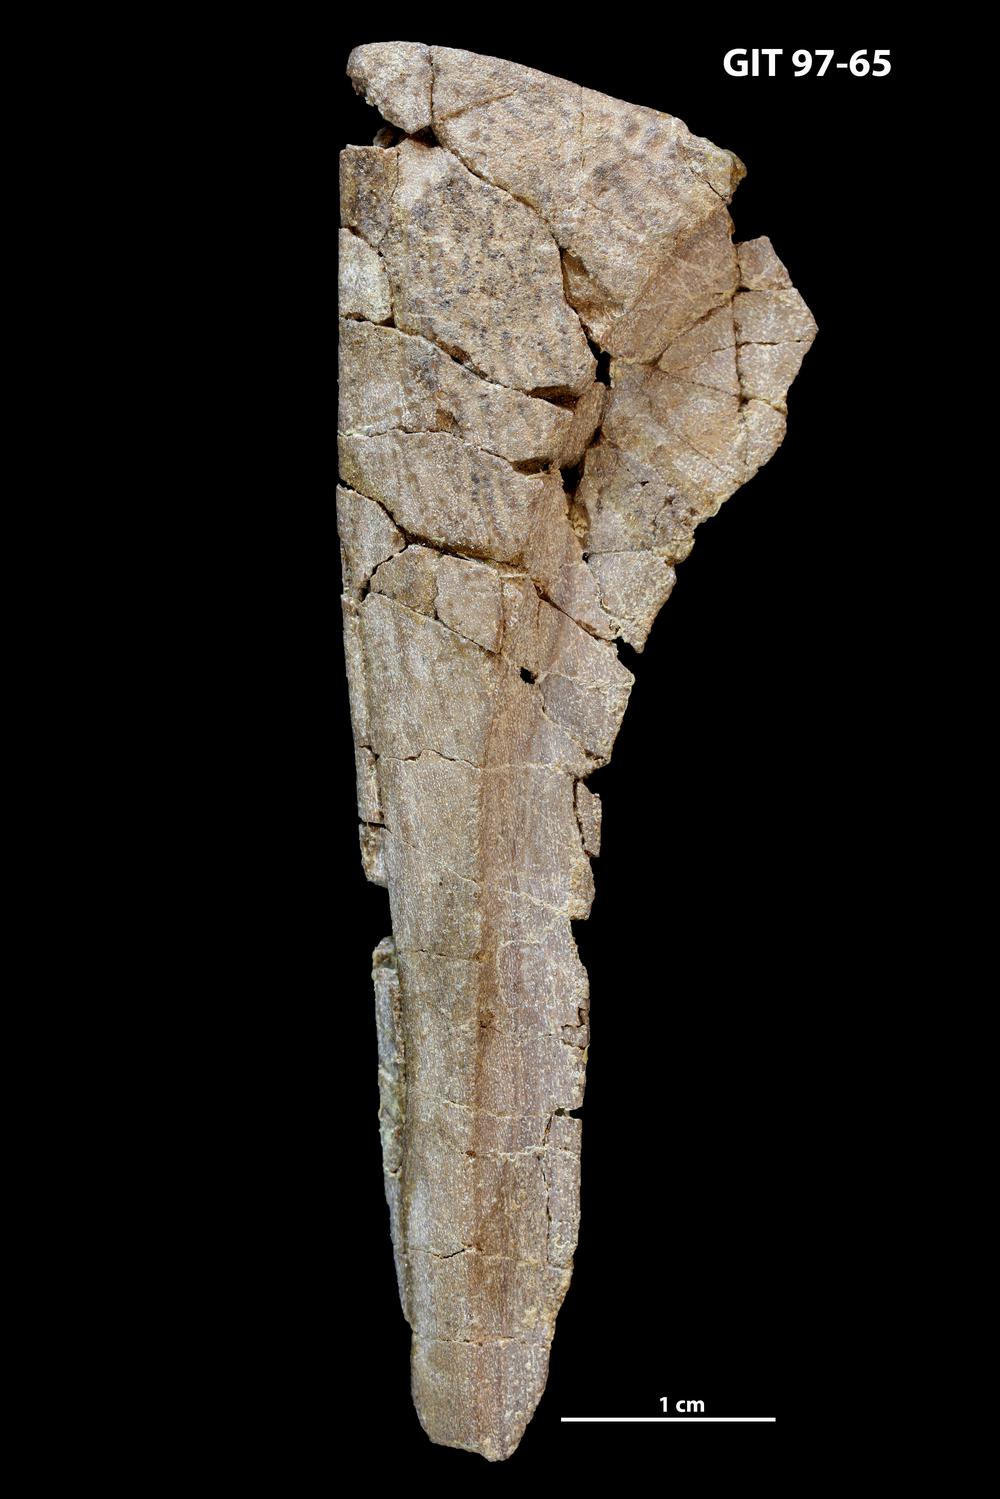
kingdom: Animalia
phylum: Chordata
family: Holonematidae
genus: Holonema
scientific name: Holonema
